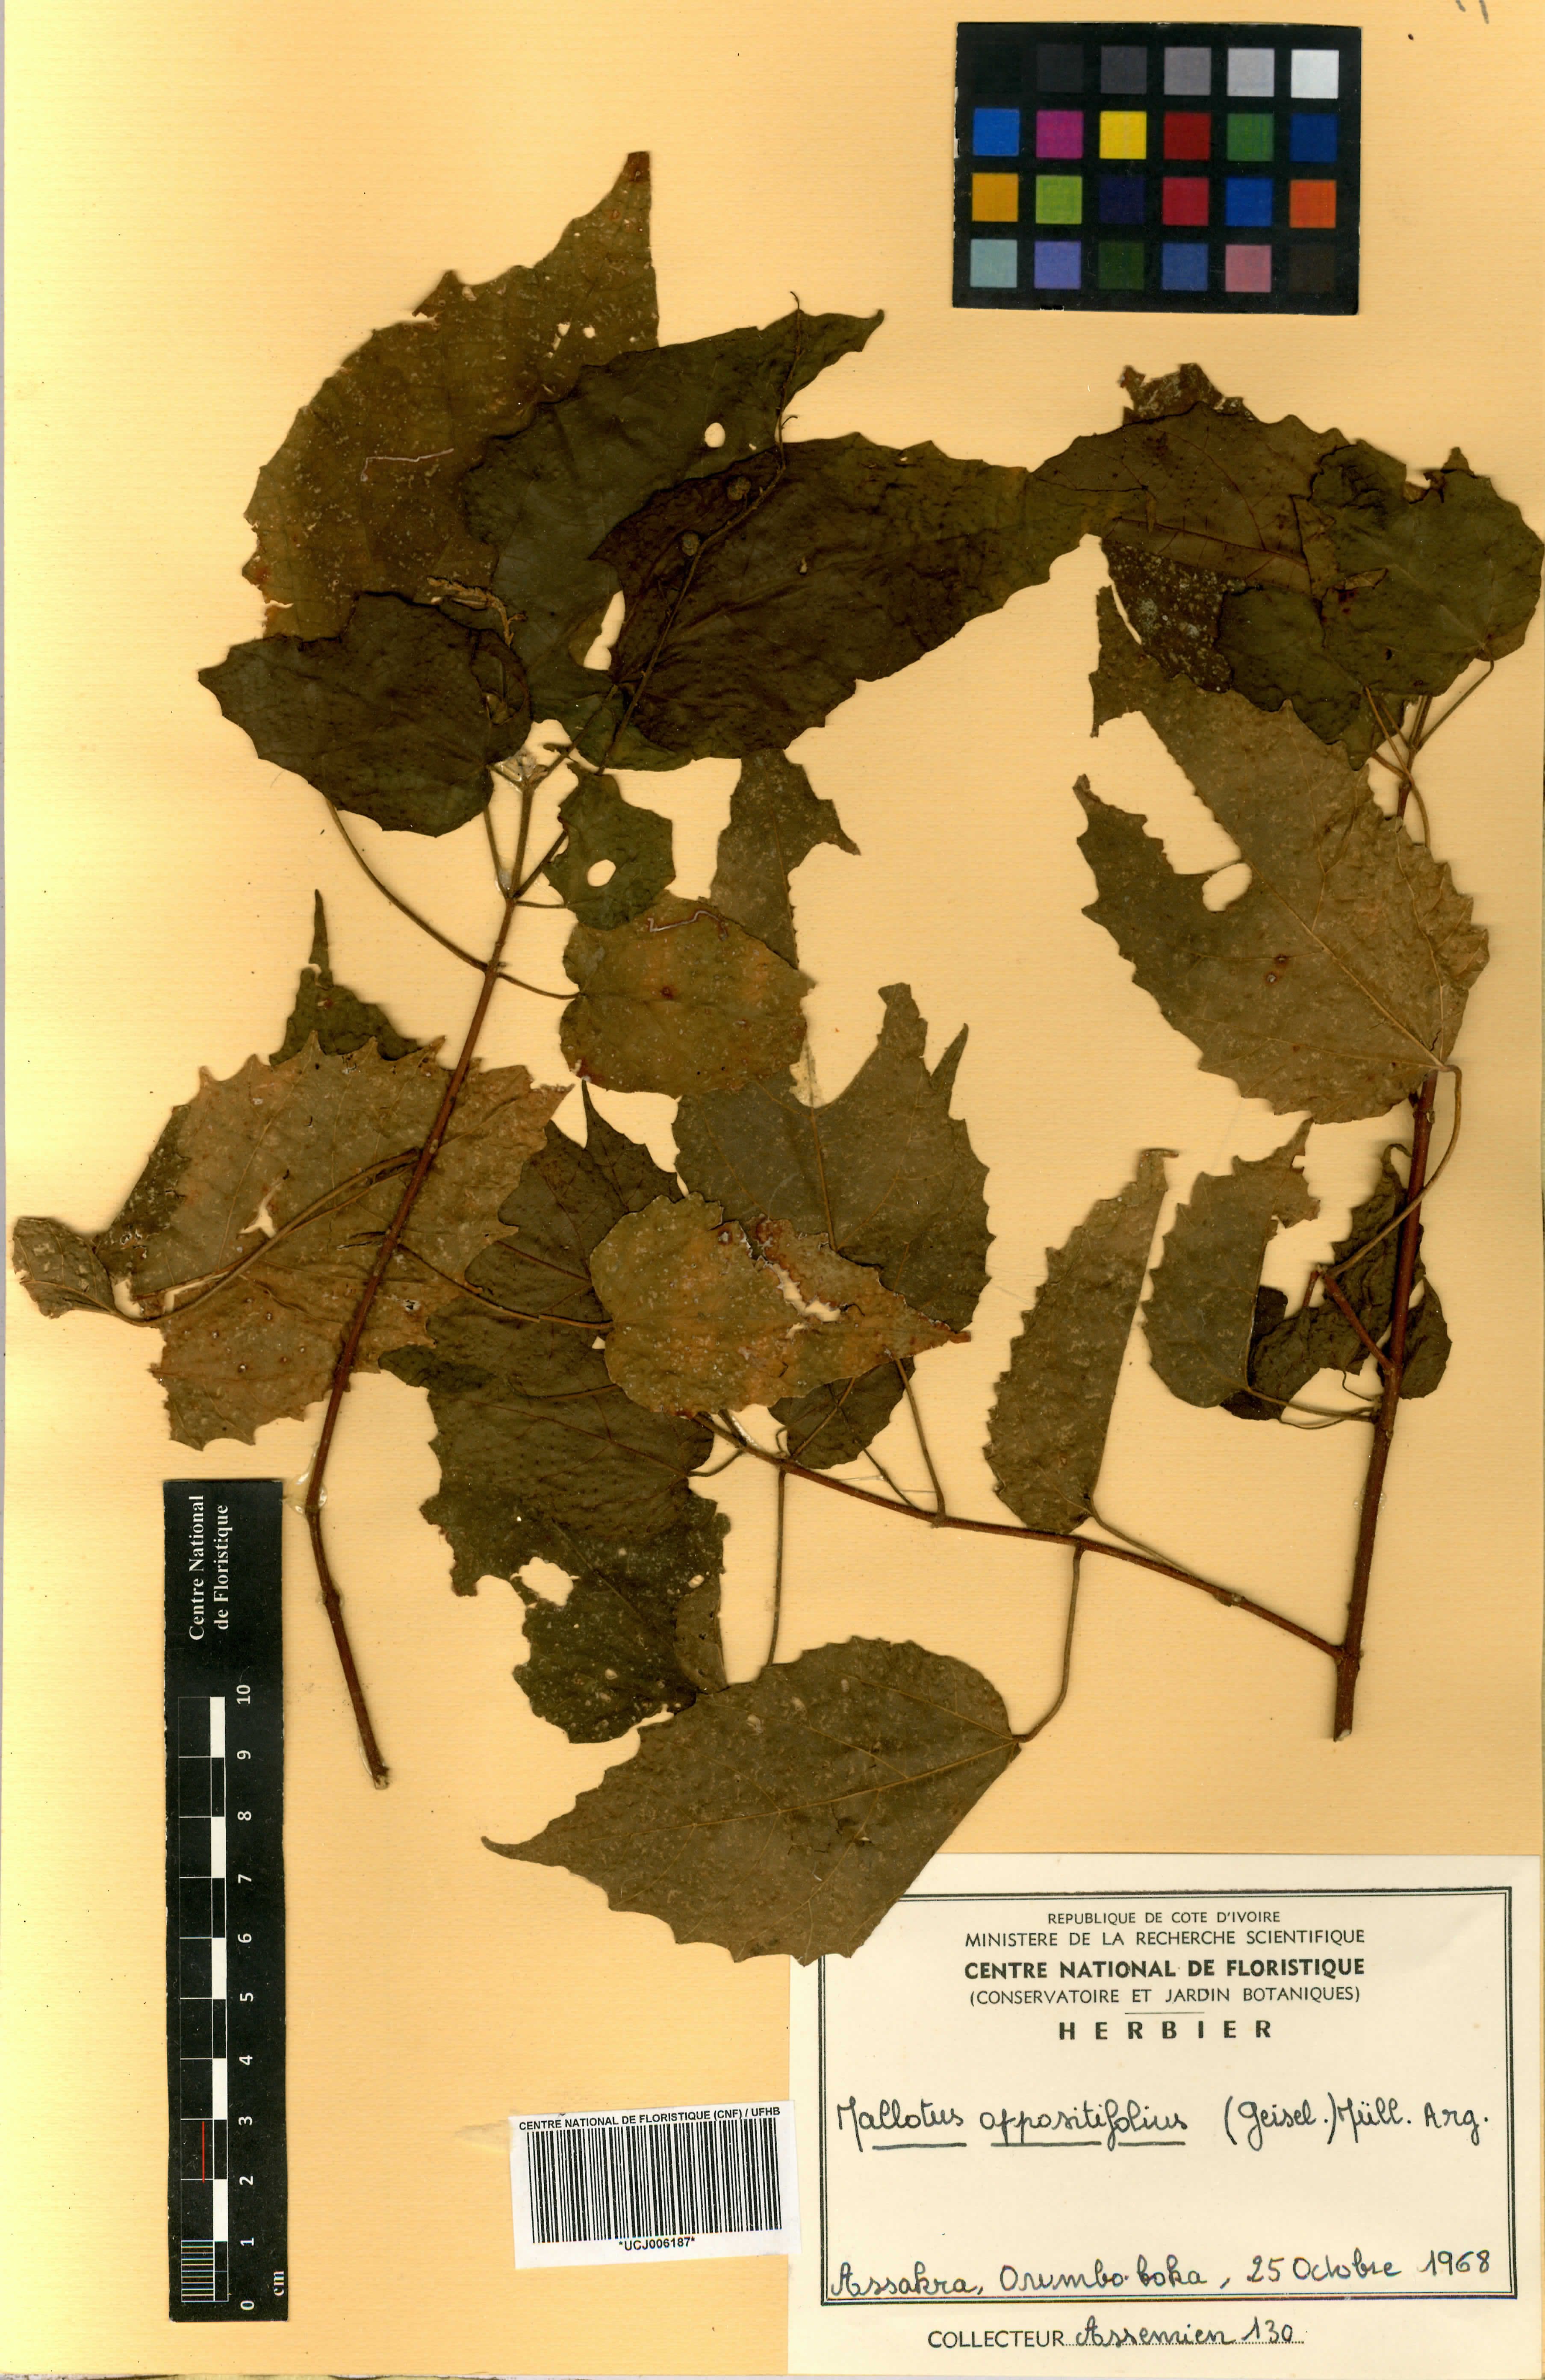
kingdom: Plantae
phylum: Tracheophyta
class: Magnoliopsida
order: Malpighiales
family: Euphorbiaceae
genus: Mallotus
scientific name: Mallotus oppositifolius
